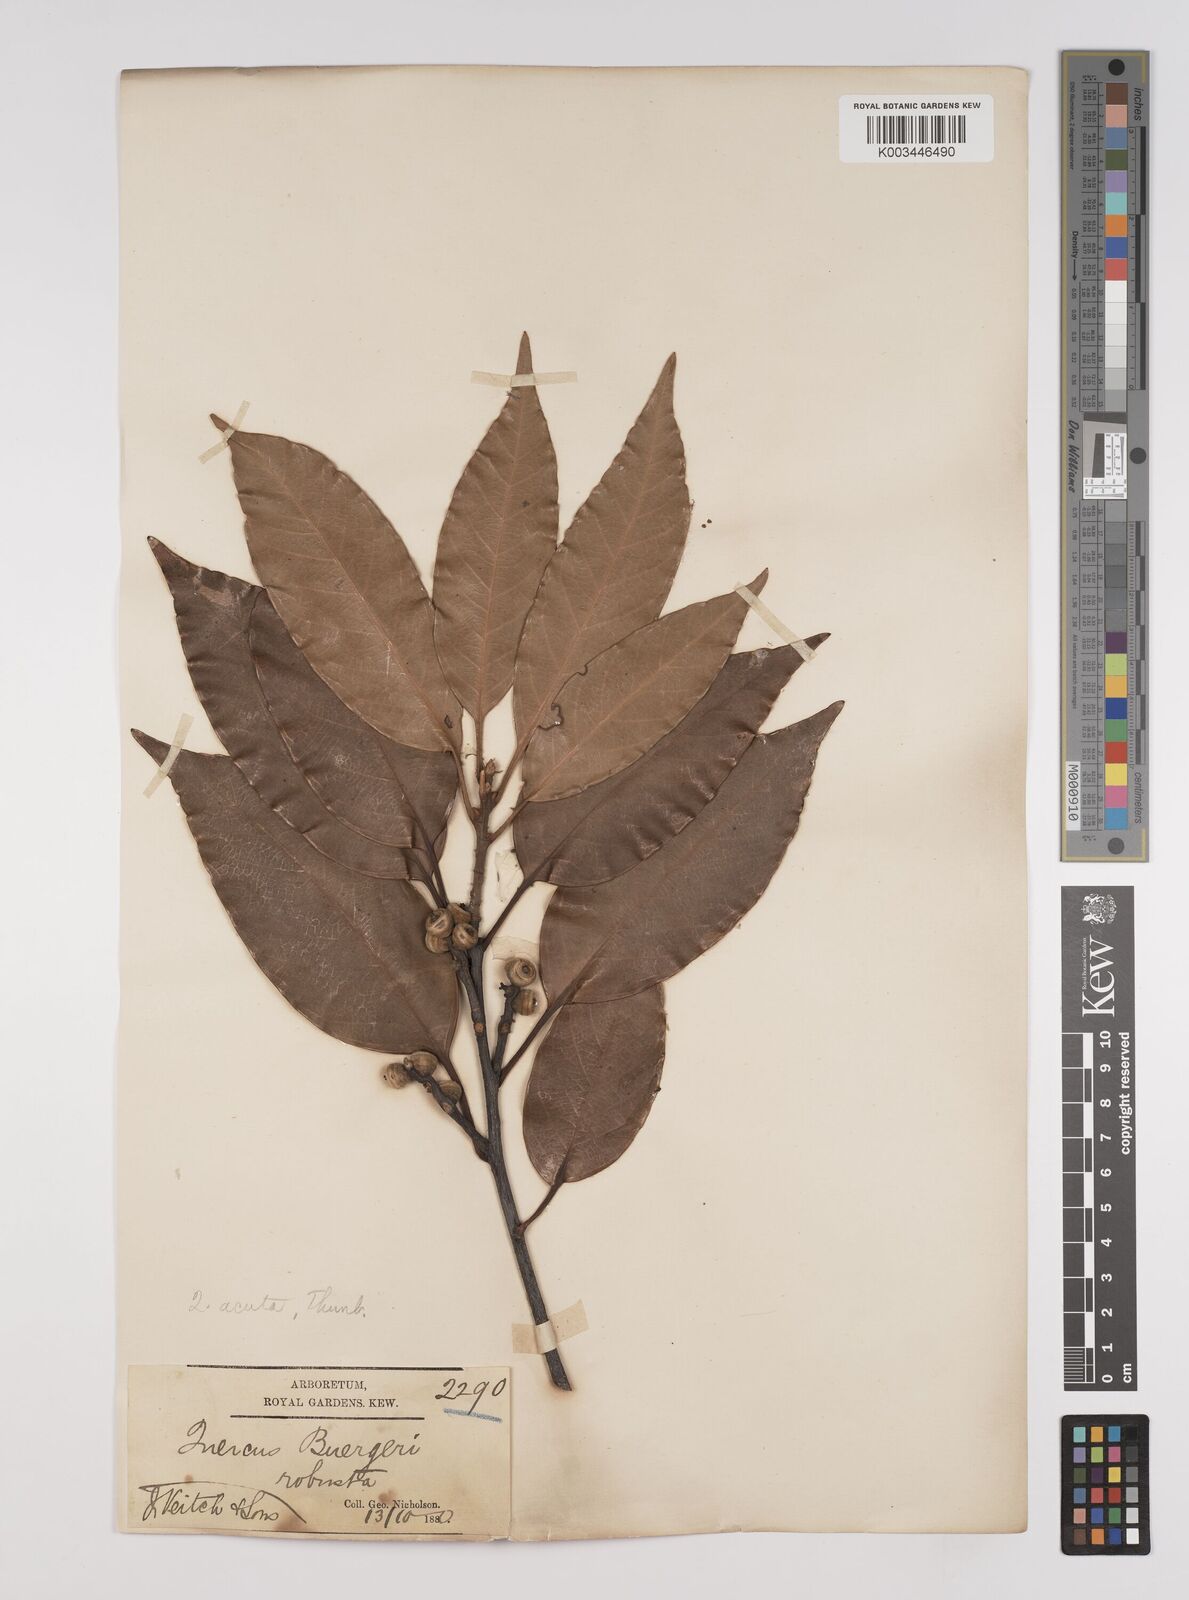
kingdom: Plantae
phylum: Tracheophyta
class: Magnoliopsida
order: Fagales
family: Fagaceae
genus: Quercus
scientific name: Quercus coccinea
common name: Scarlet oak
